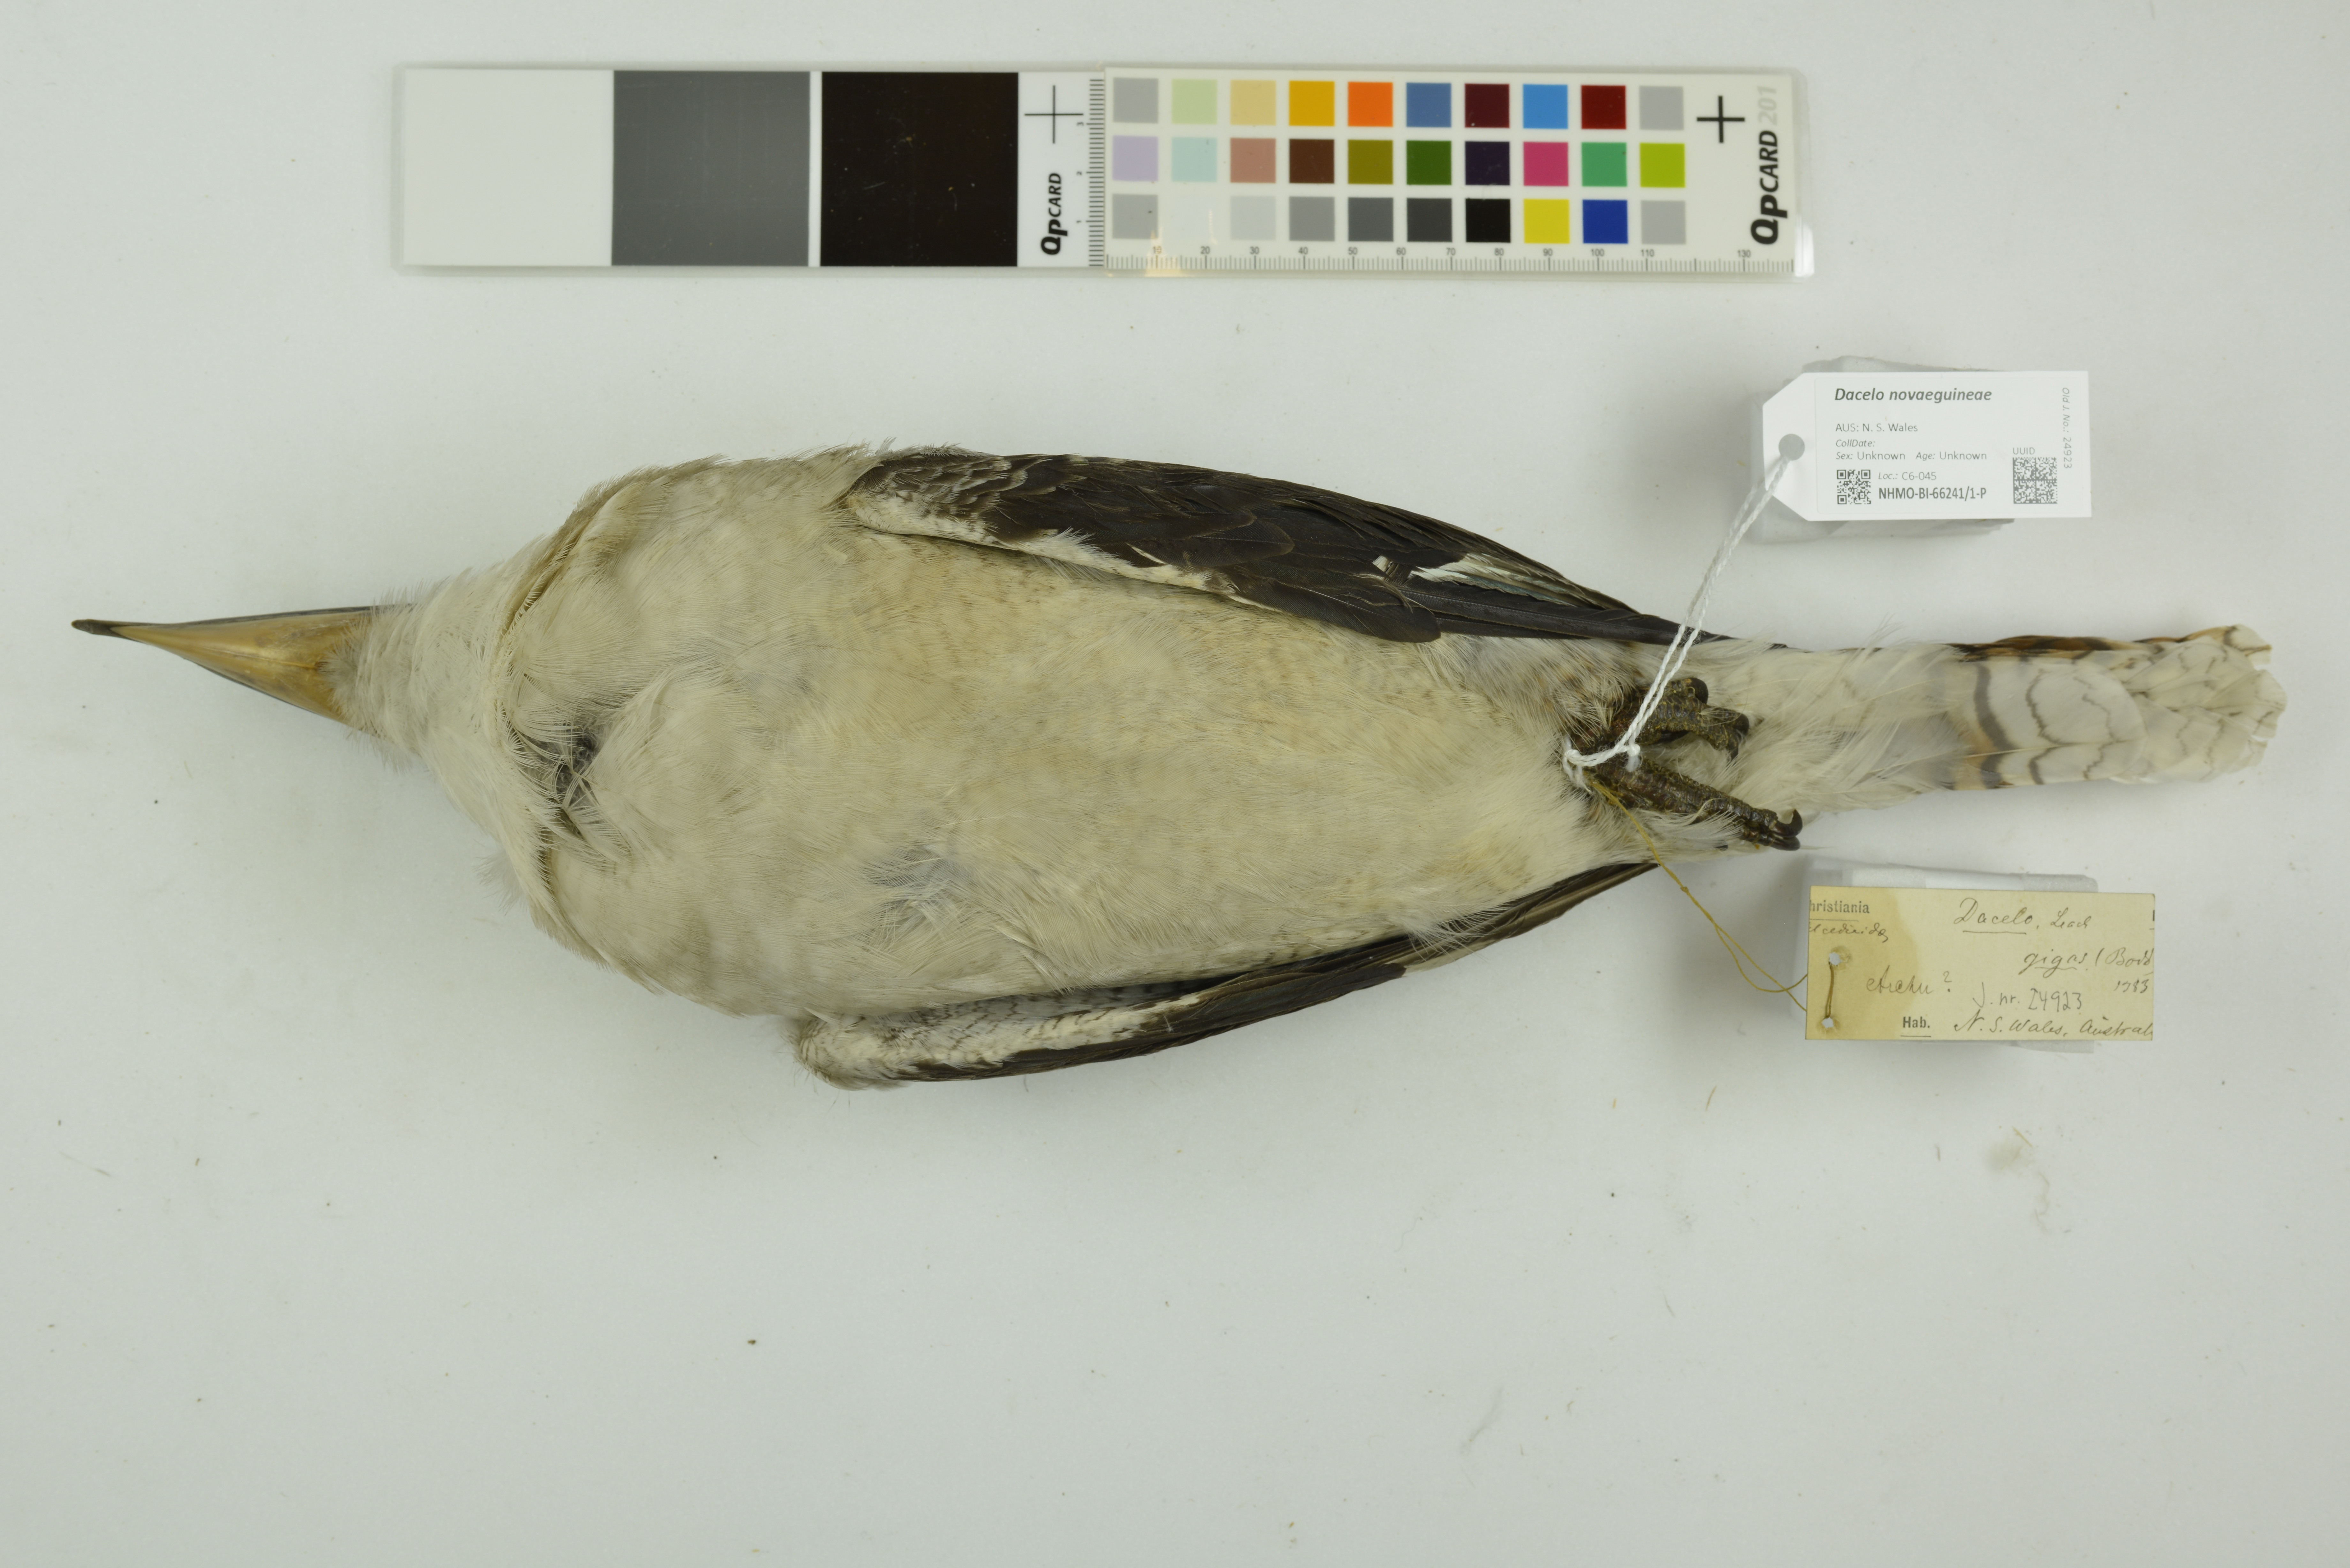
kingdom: Animalia
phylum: Chordata
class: Aves
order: Coraciiformes
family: Alcedinidae
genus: Dacelo
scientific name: Dacelo novaeguineae
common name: Laughing kookaburra
